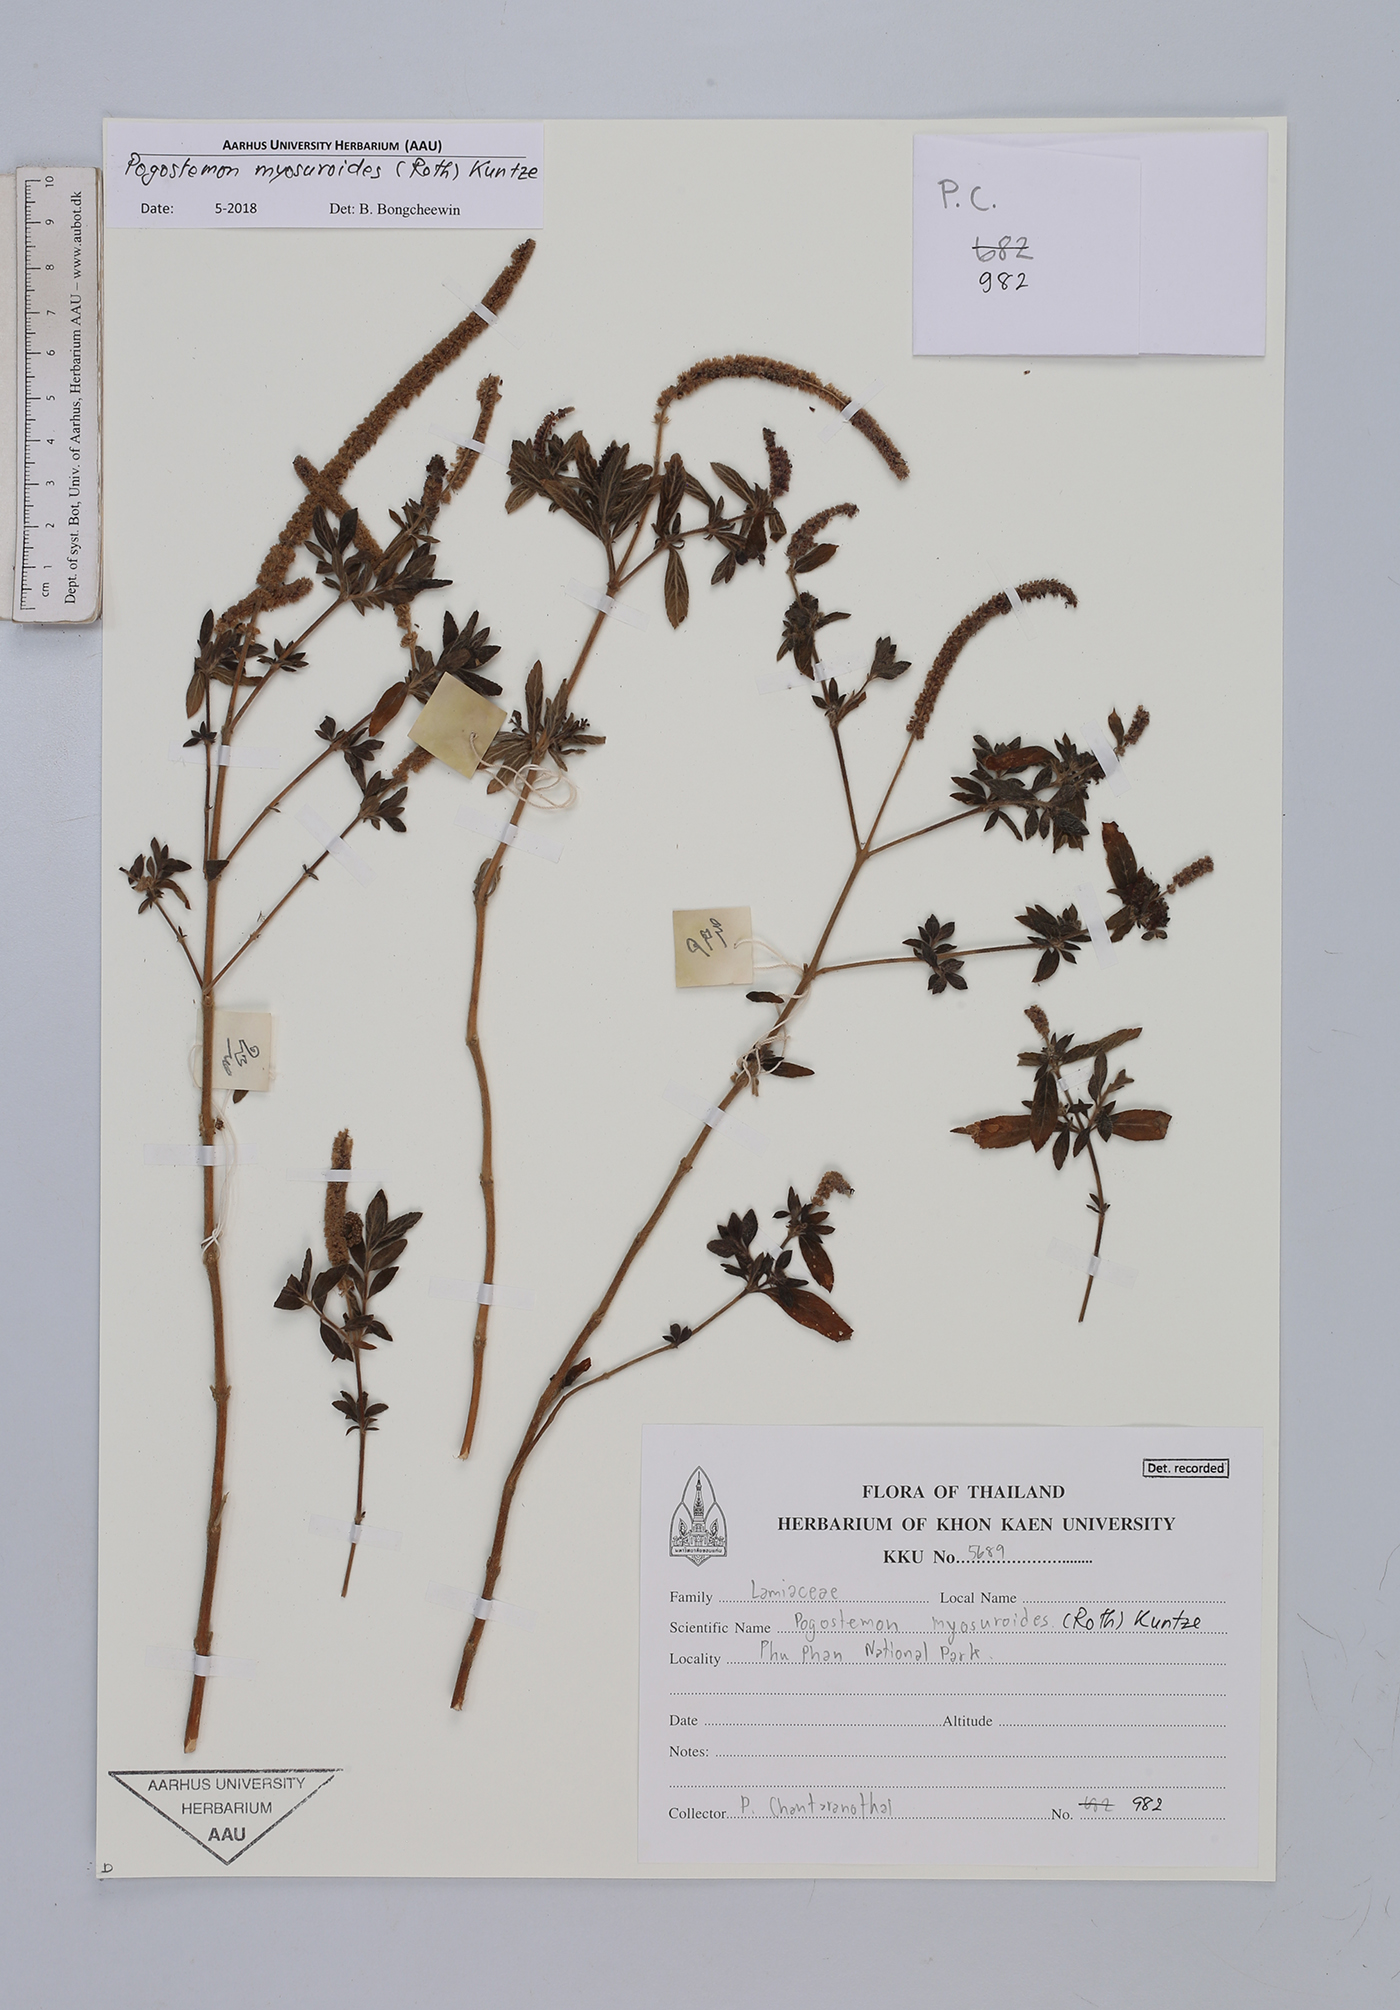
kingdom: Plantae
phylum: Tracheophyta
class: Magnoliopsida
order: Lamiales
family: Lamiaceae
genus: Pogostemon
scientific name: Pogostemon myosuroides
